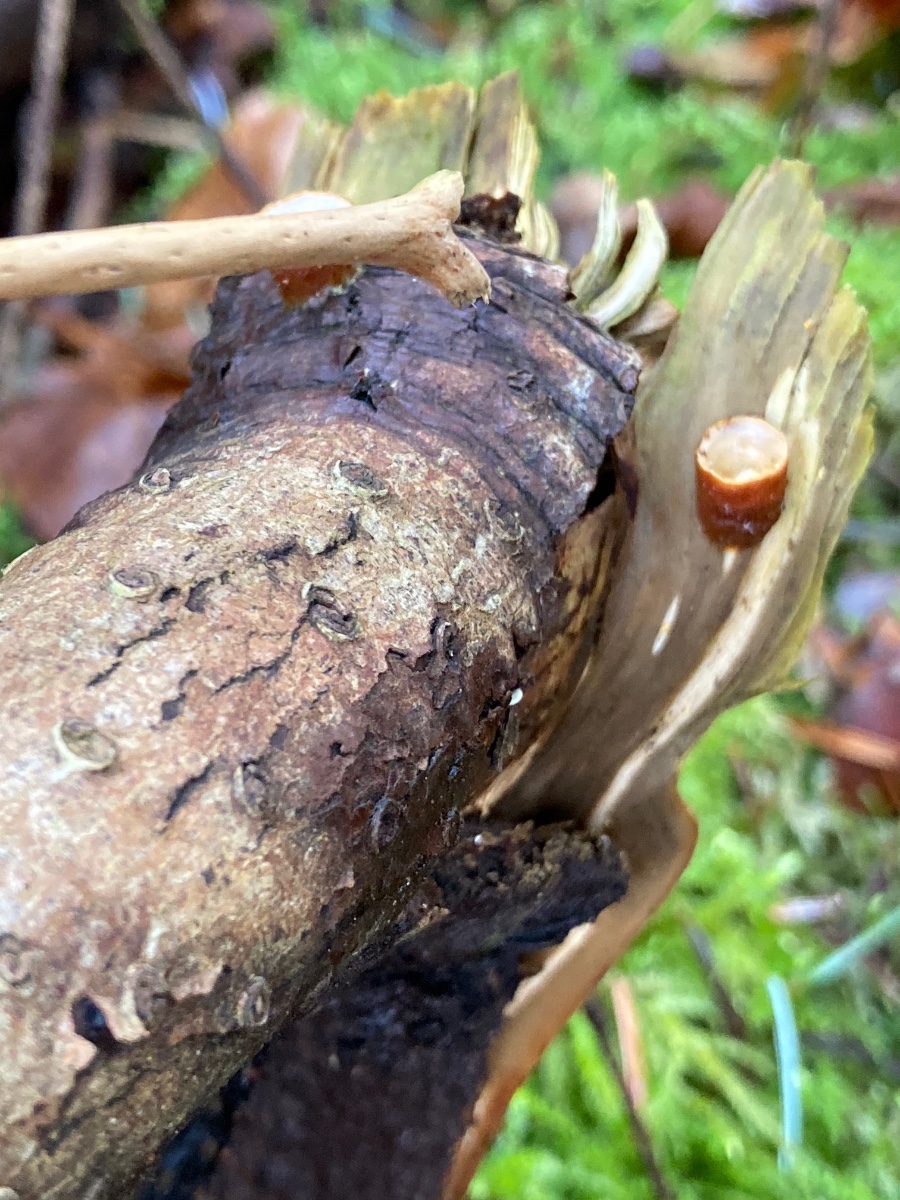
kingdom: Fungi
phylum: Basidiomycota
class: Agaricomycetes
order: Agaricales
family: Nidulariaceae
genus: Crucibulum
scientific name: Crucibulum crucibuliforme
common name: krukkesvamp
